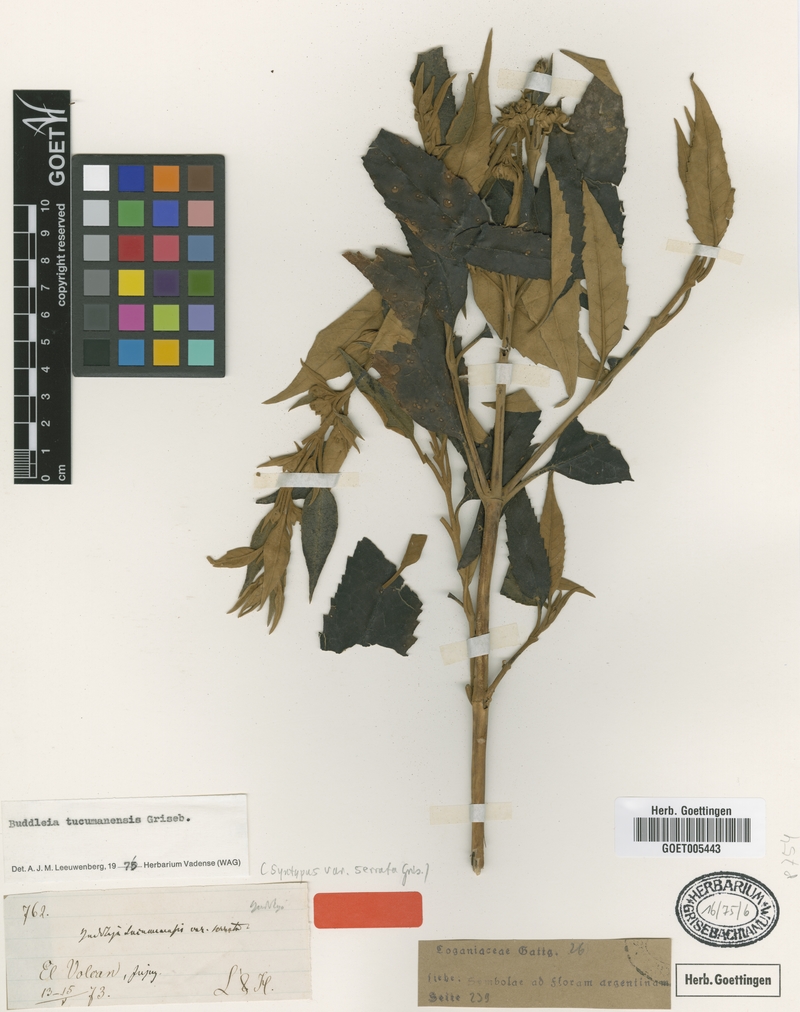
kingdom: Plantae
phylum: Tracheophyta
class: Magnoliopsida
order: Lamiales
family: Scrophulariaceae
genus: Buddleja
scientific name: Buddleja tucumanensis
